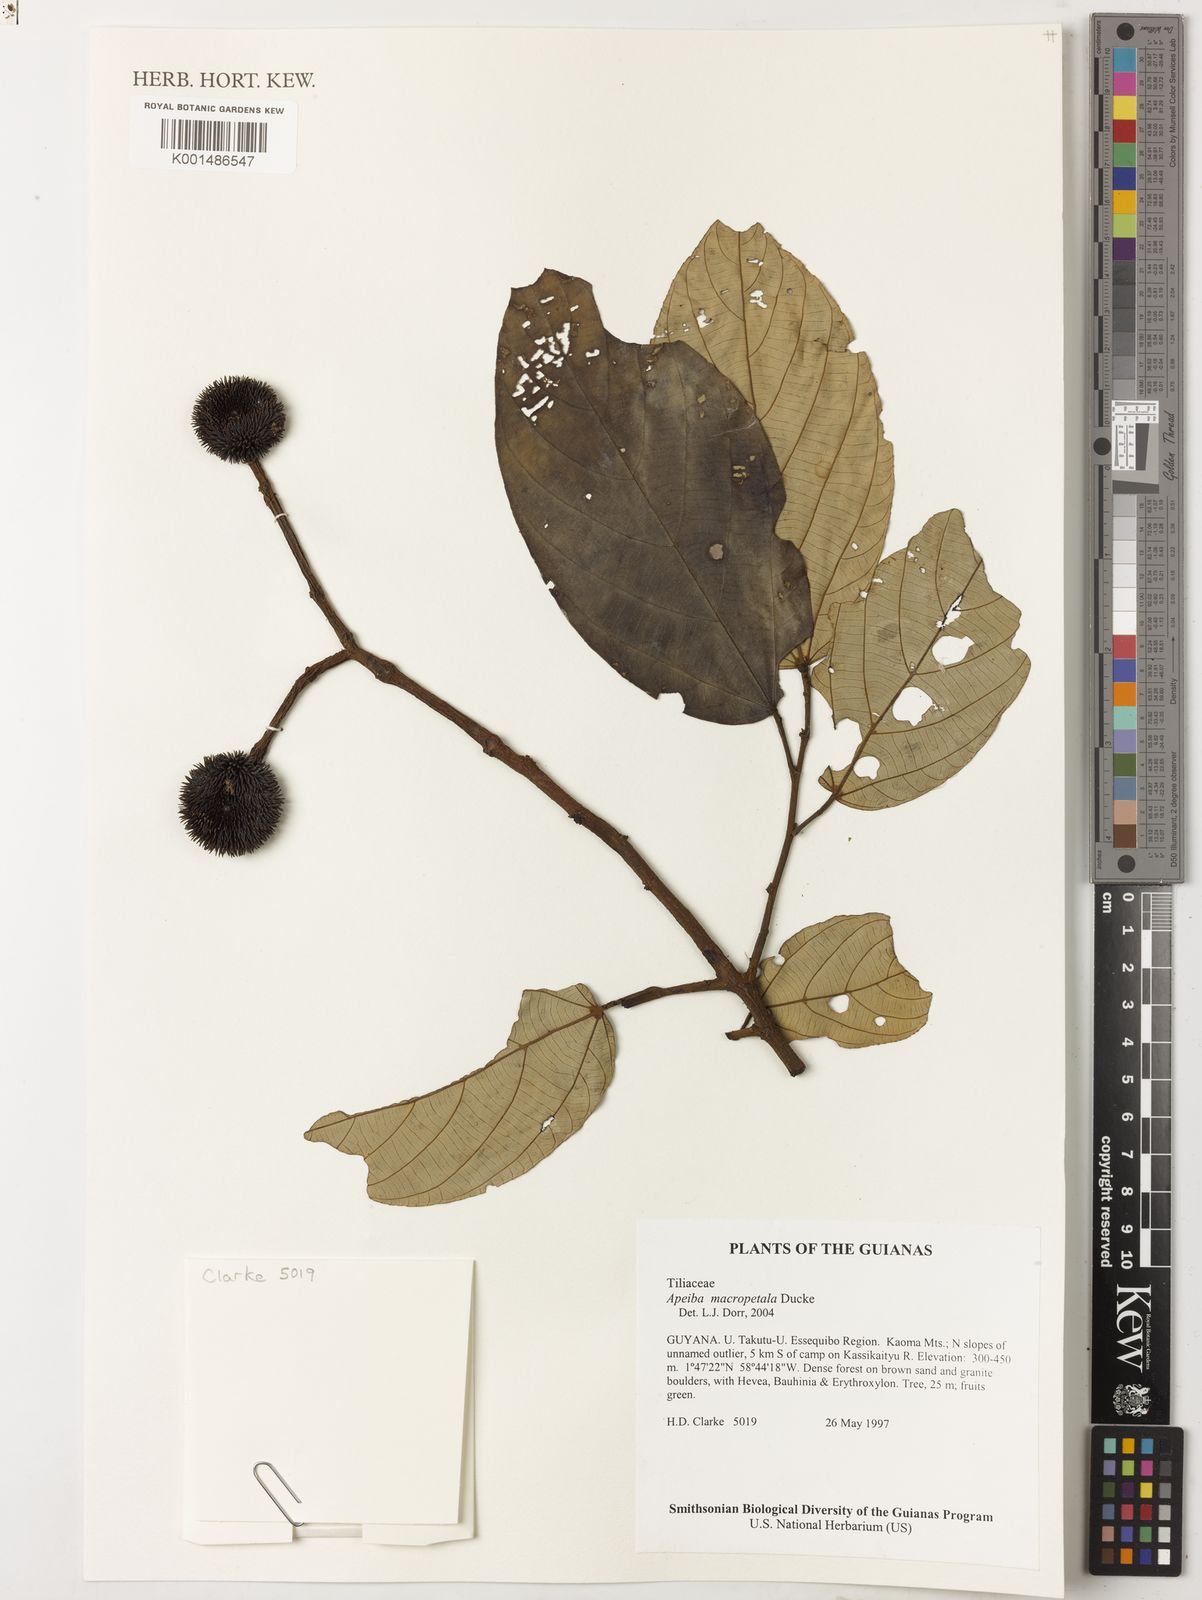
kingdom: Plantae
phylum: Tracheophyta
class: Magnoliopsida
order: Malvales
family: Malvaceae
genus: Apeiba
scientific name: Apeiba macropetala
